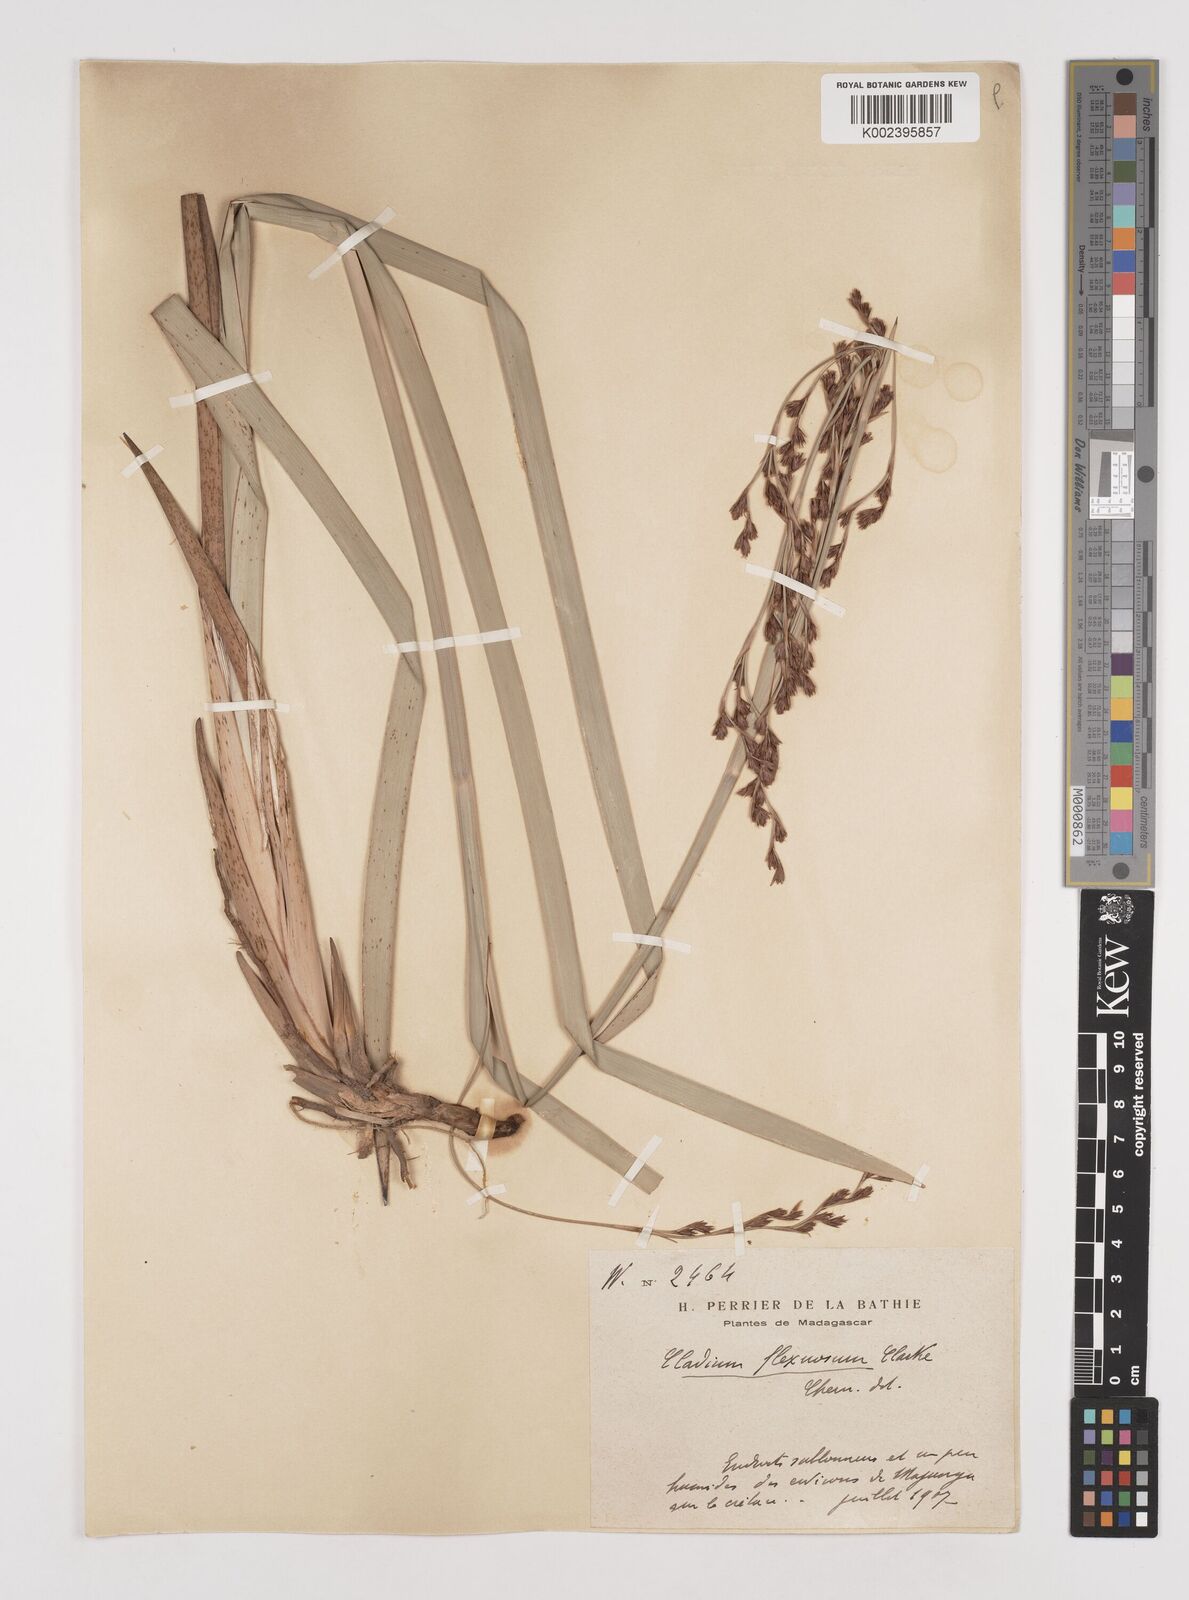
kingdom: Plantae
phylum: Tracheophyta
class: Liliopsida
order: Poales
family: Cyperaceae
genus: Machaerina
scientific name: Machaerina flexuosa
